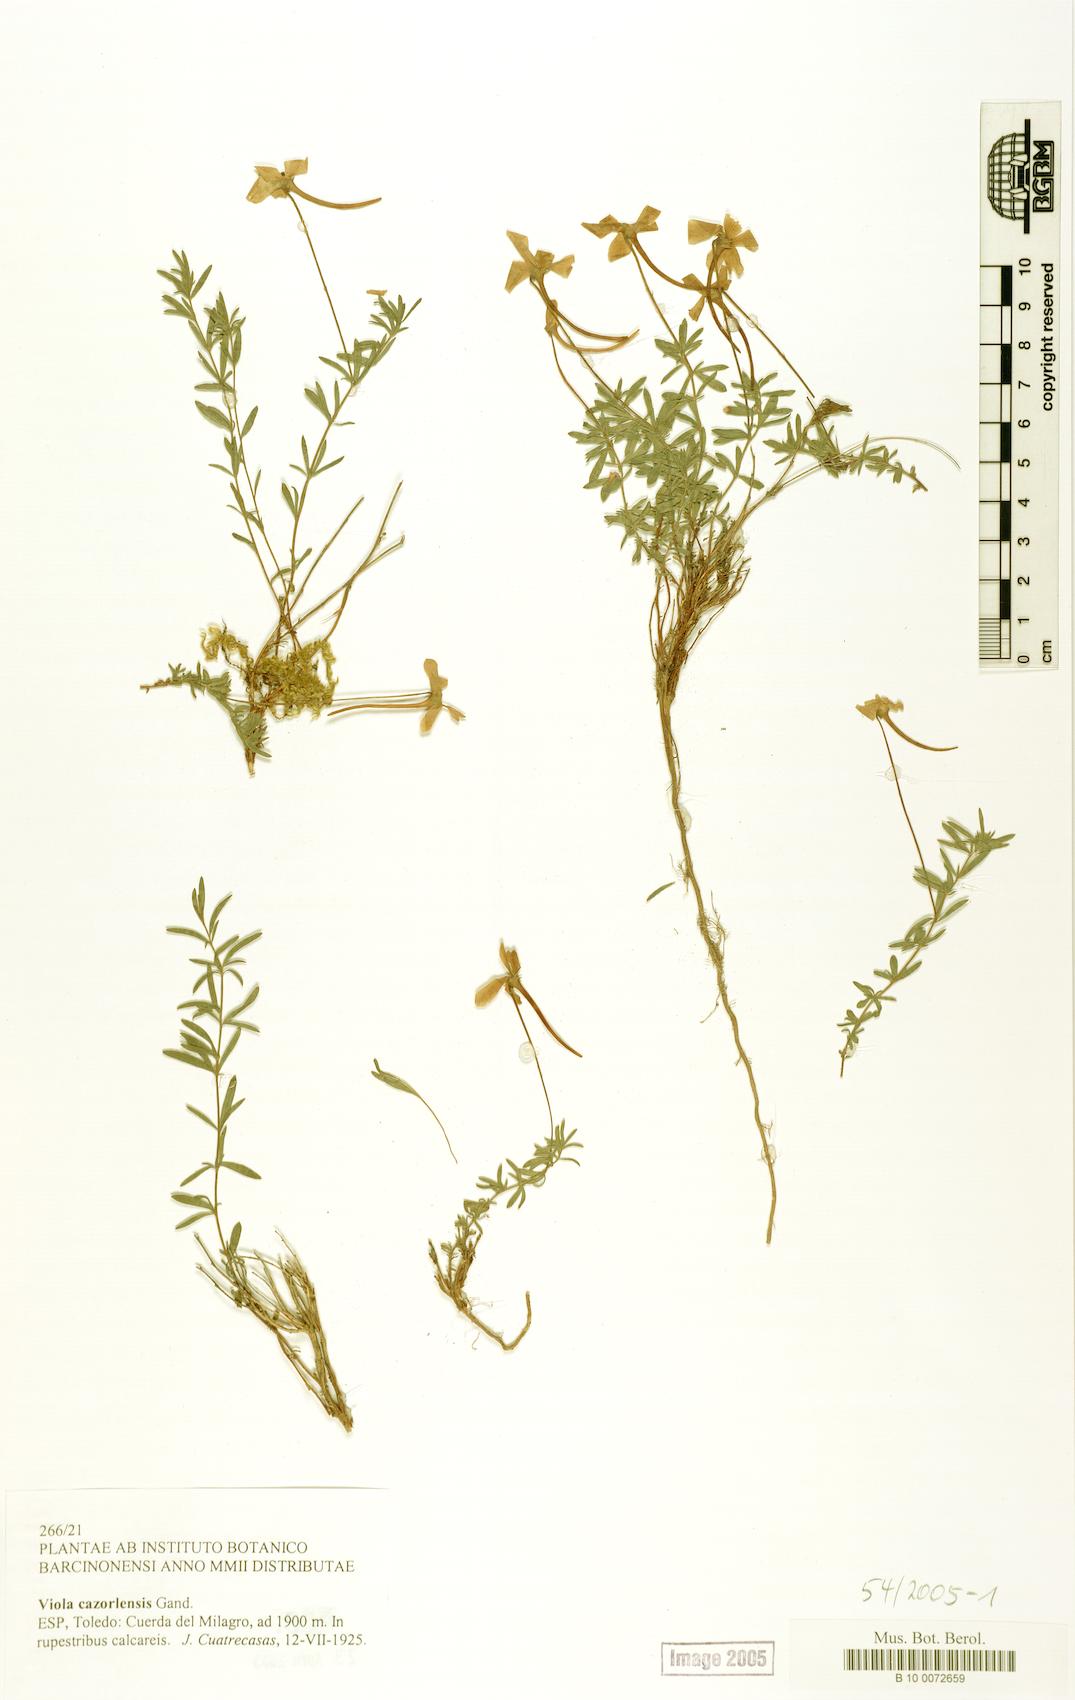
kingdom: Plantae
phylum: Tracheophyta
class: Magnoliopsida
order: Malpighiales
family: Violaceae
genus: Viola
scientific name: Viola cazorlensis
